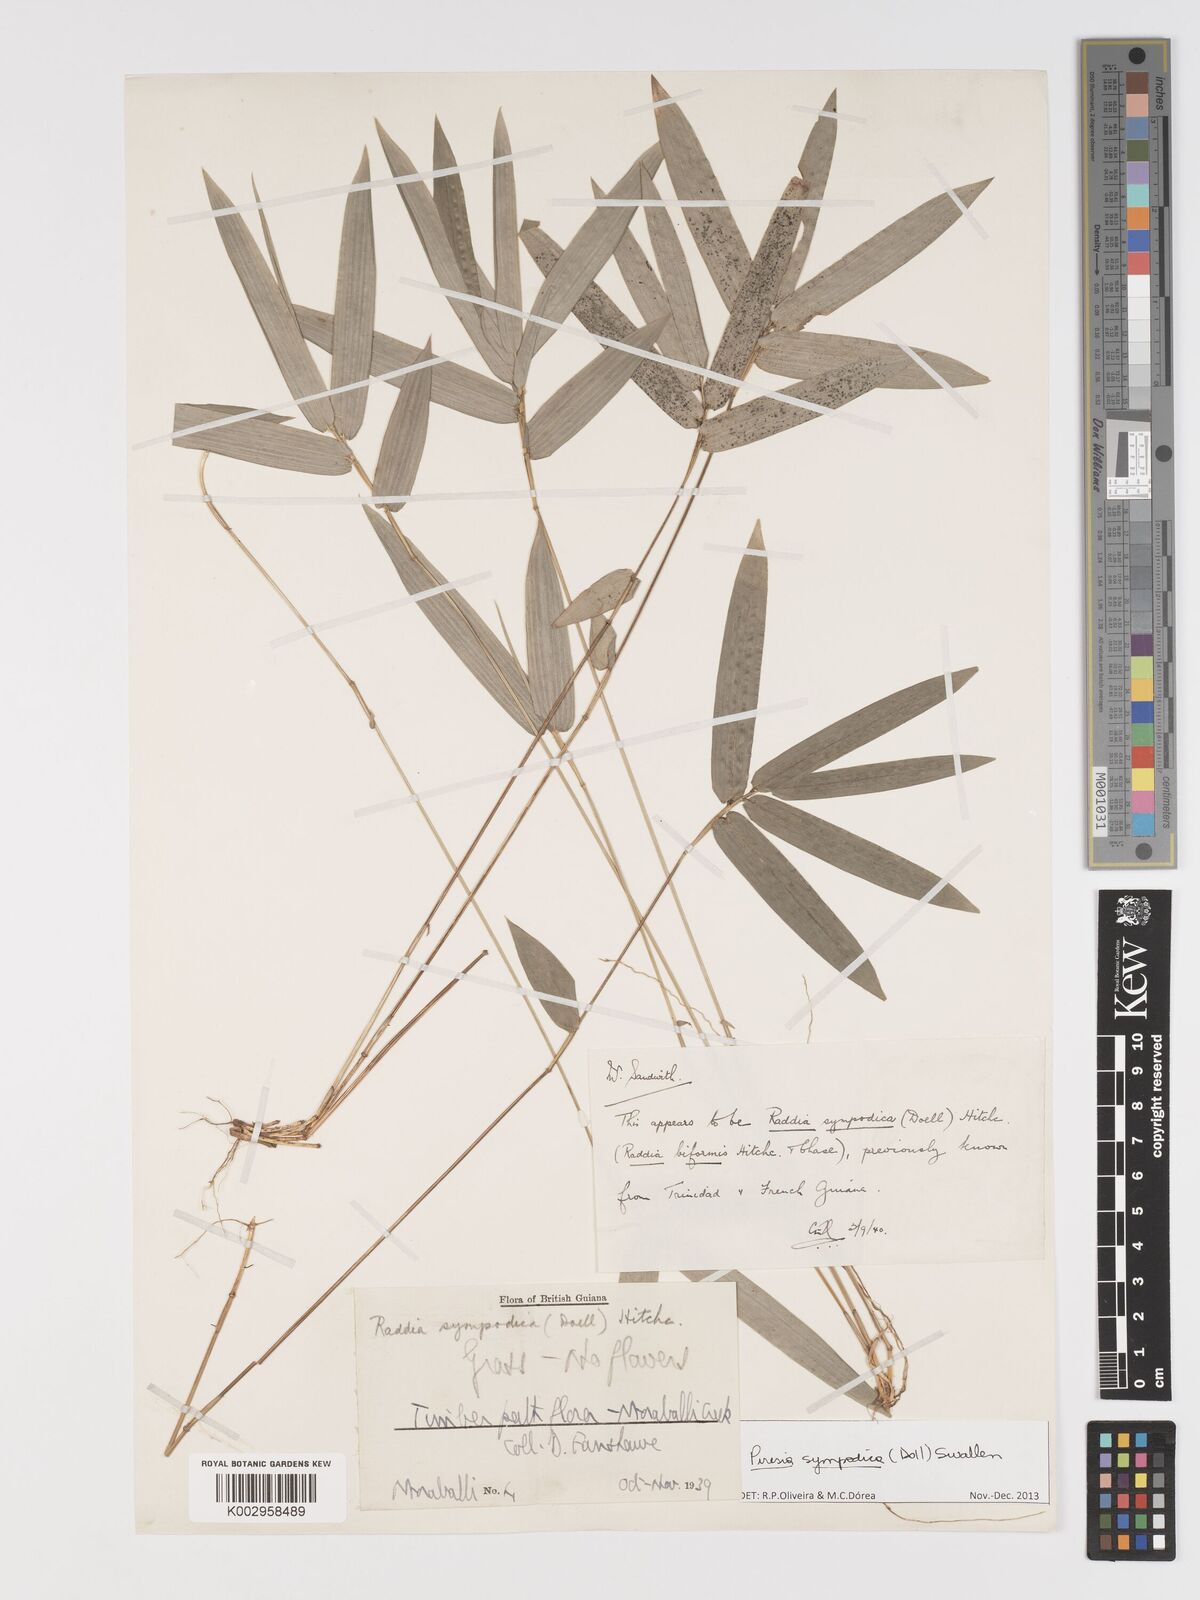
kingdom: Plantae
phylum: Tracheophyta
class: Liliopsida
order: Poales
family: Poaceae
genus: Piresia
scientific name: Piresia sympodica
